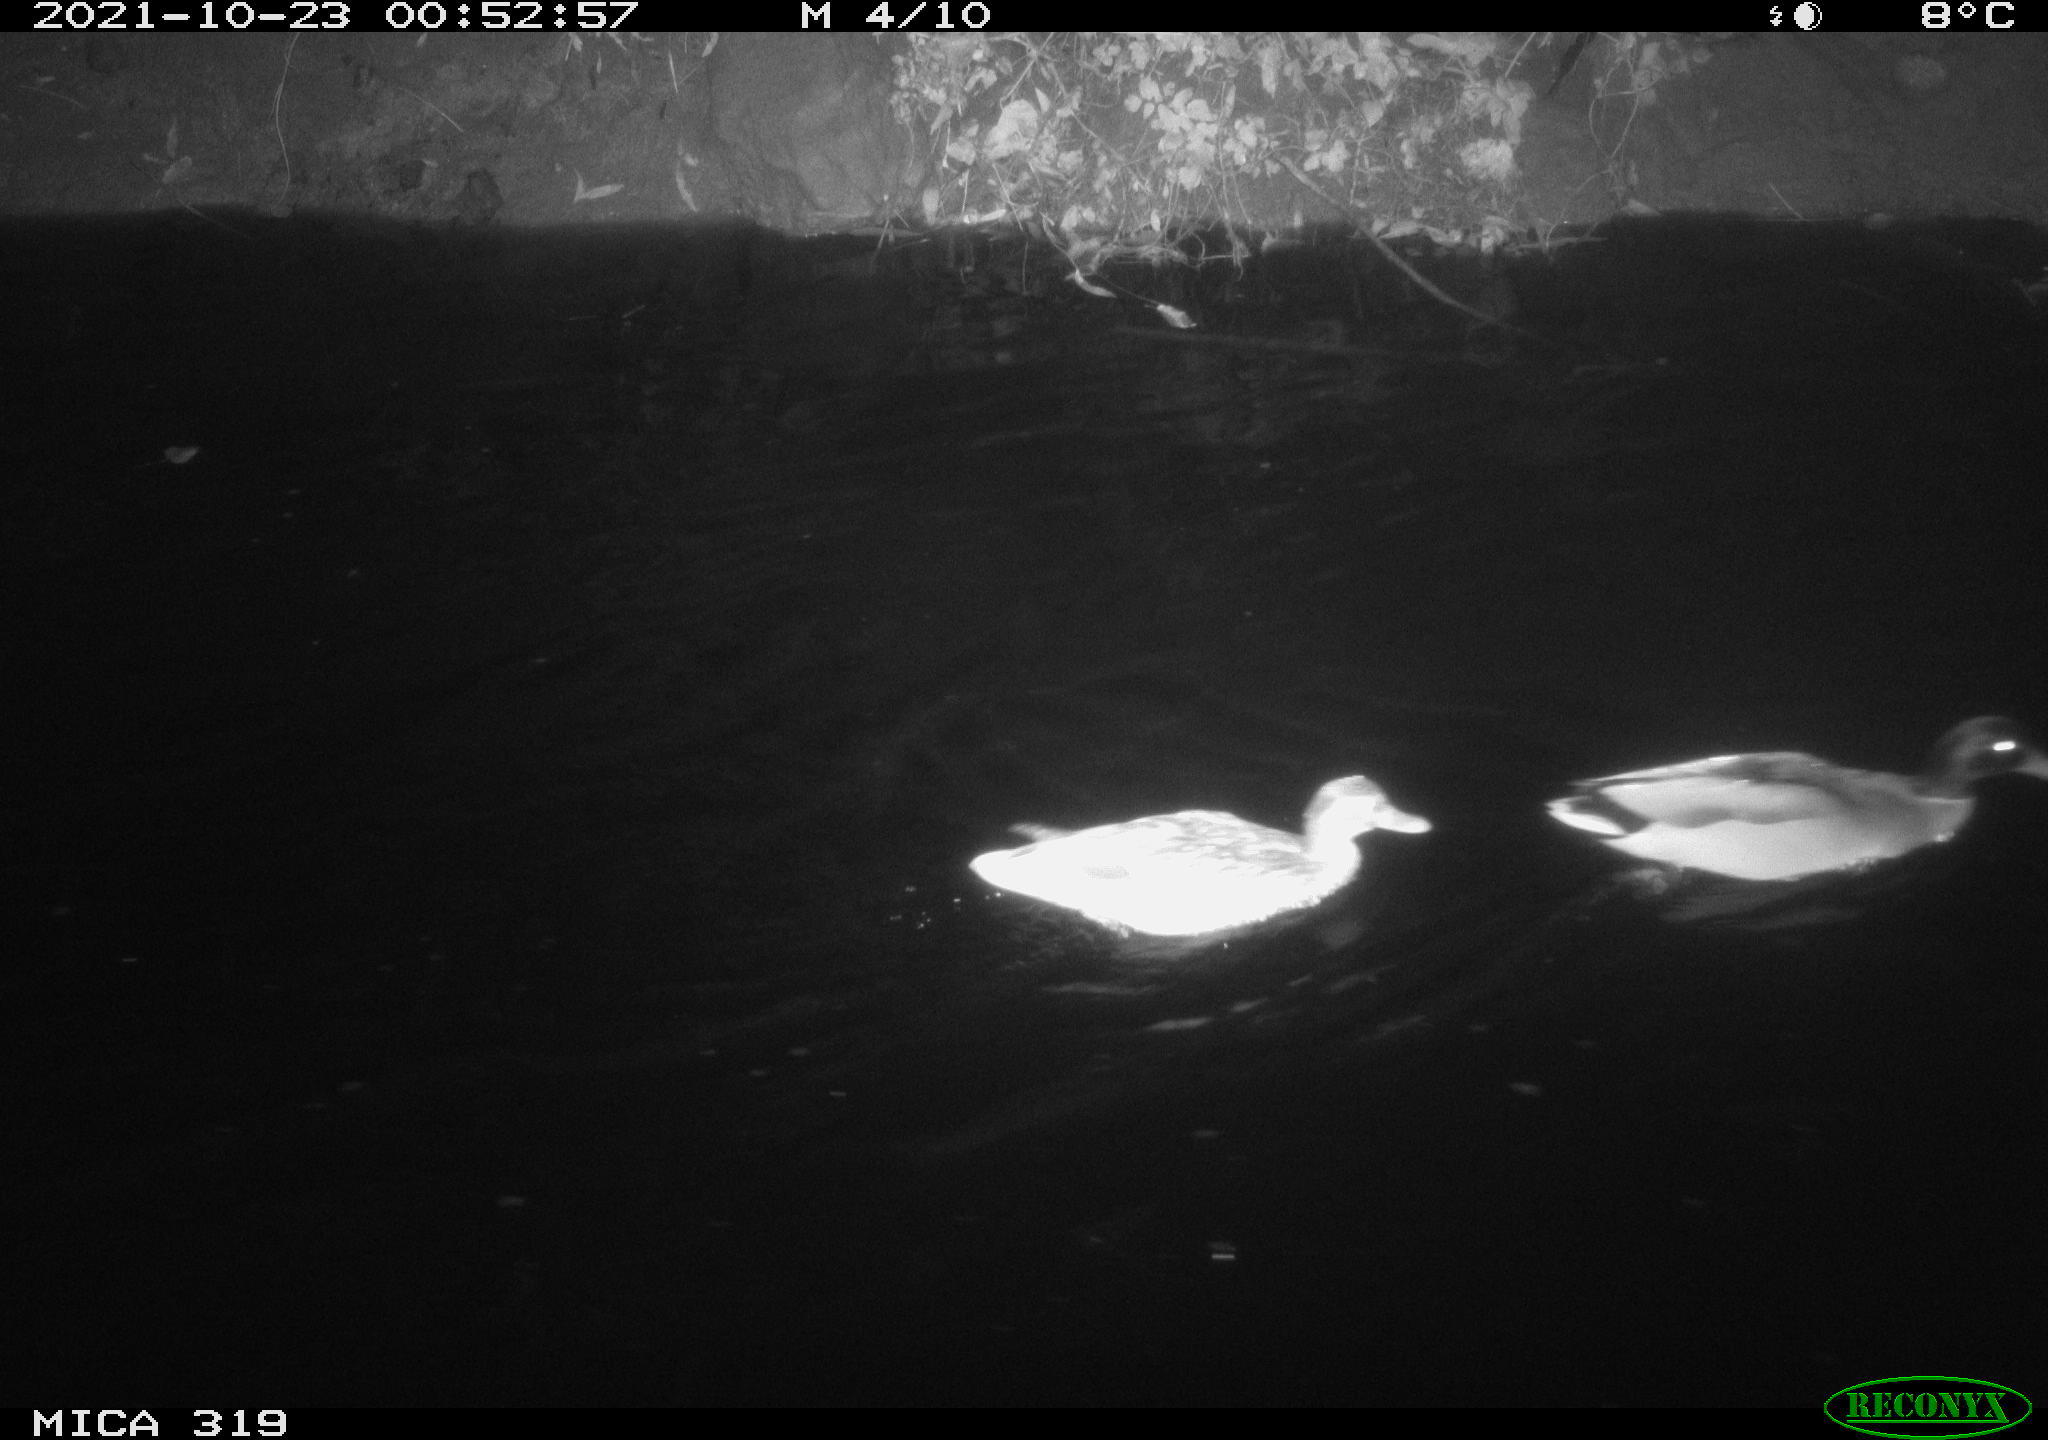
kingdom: Animalia
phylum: Chordata
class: Aves
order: Anseriformes
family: Anatidae
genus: Anas
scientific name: Anas platyrhynchos
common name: Mallard
